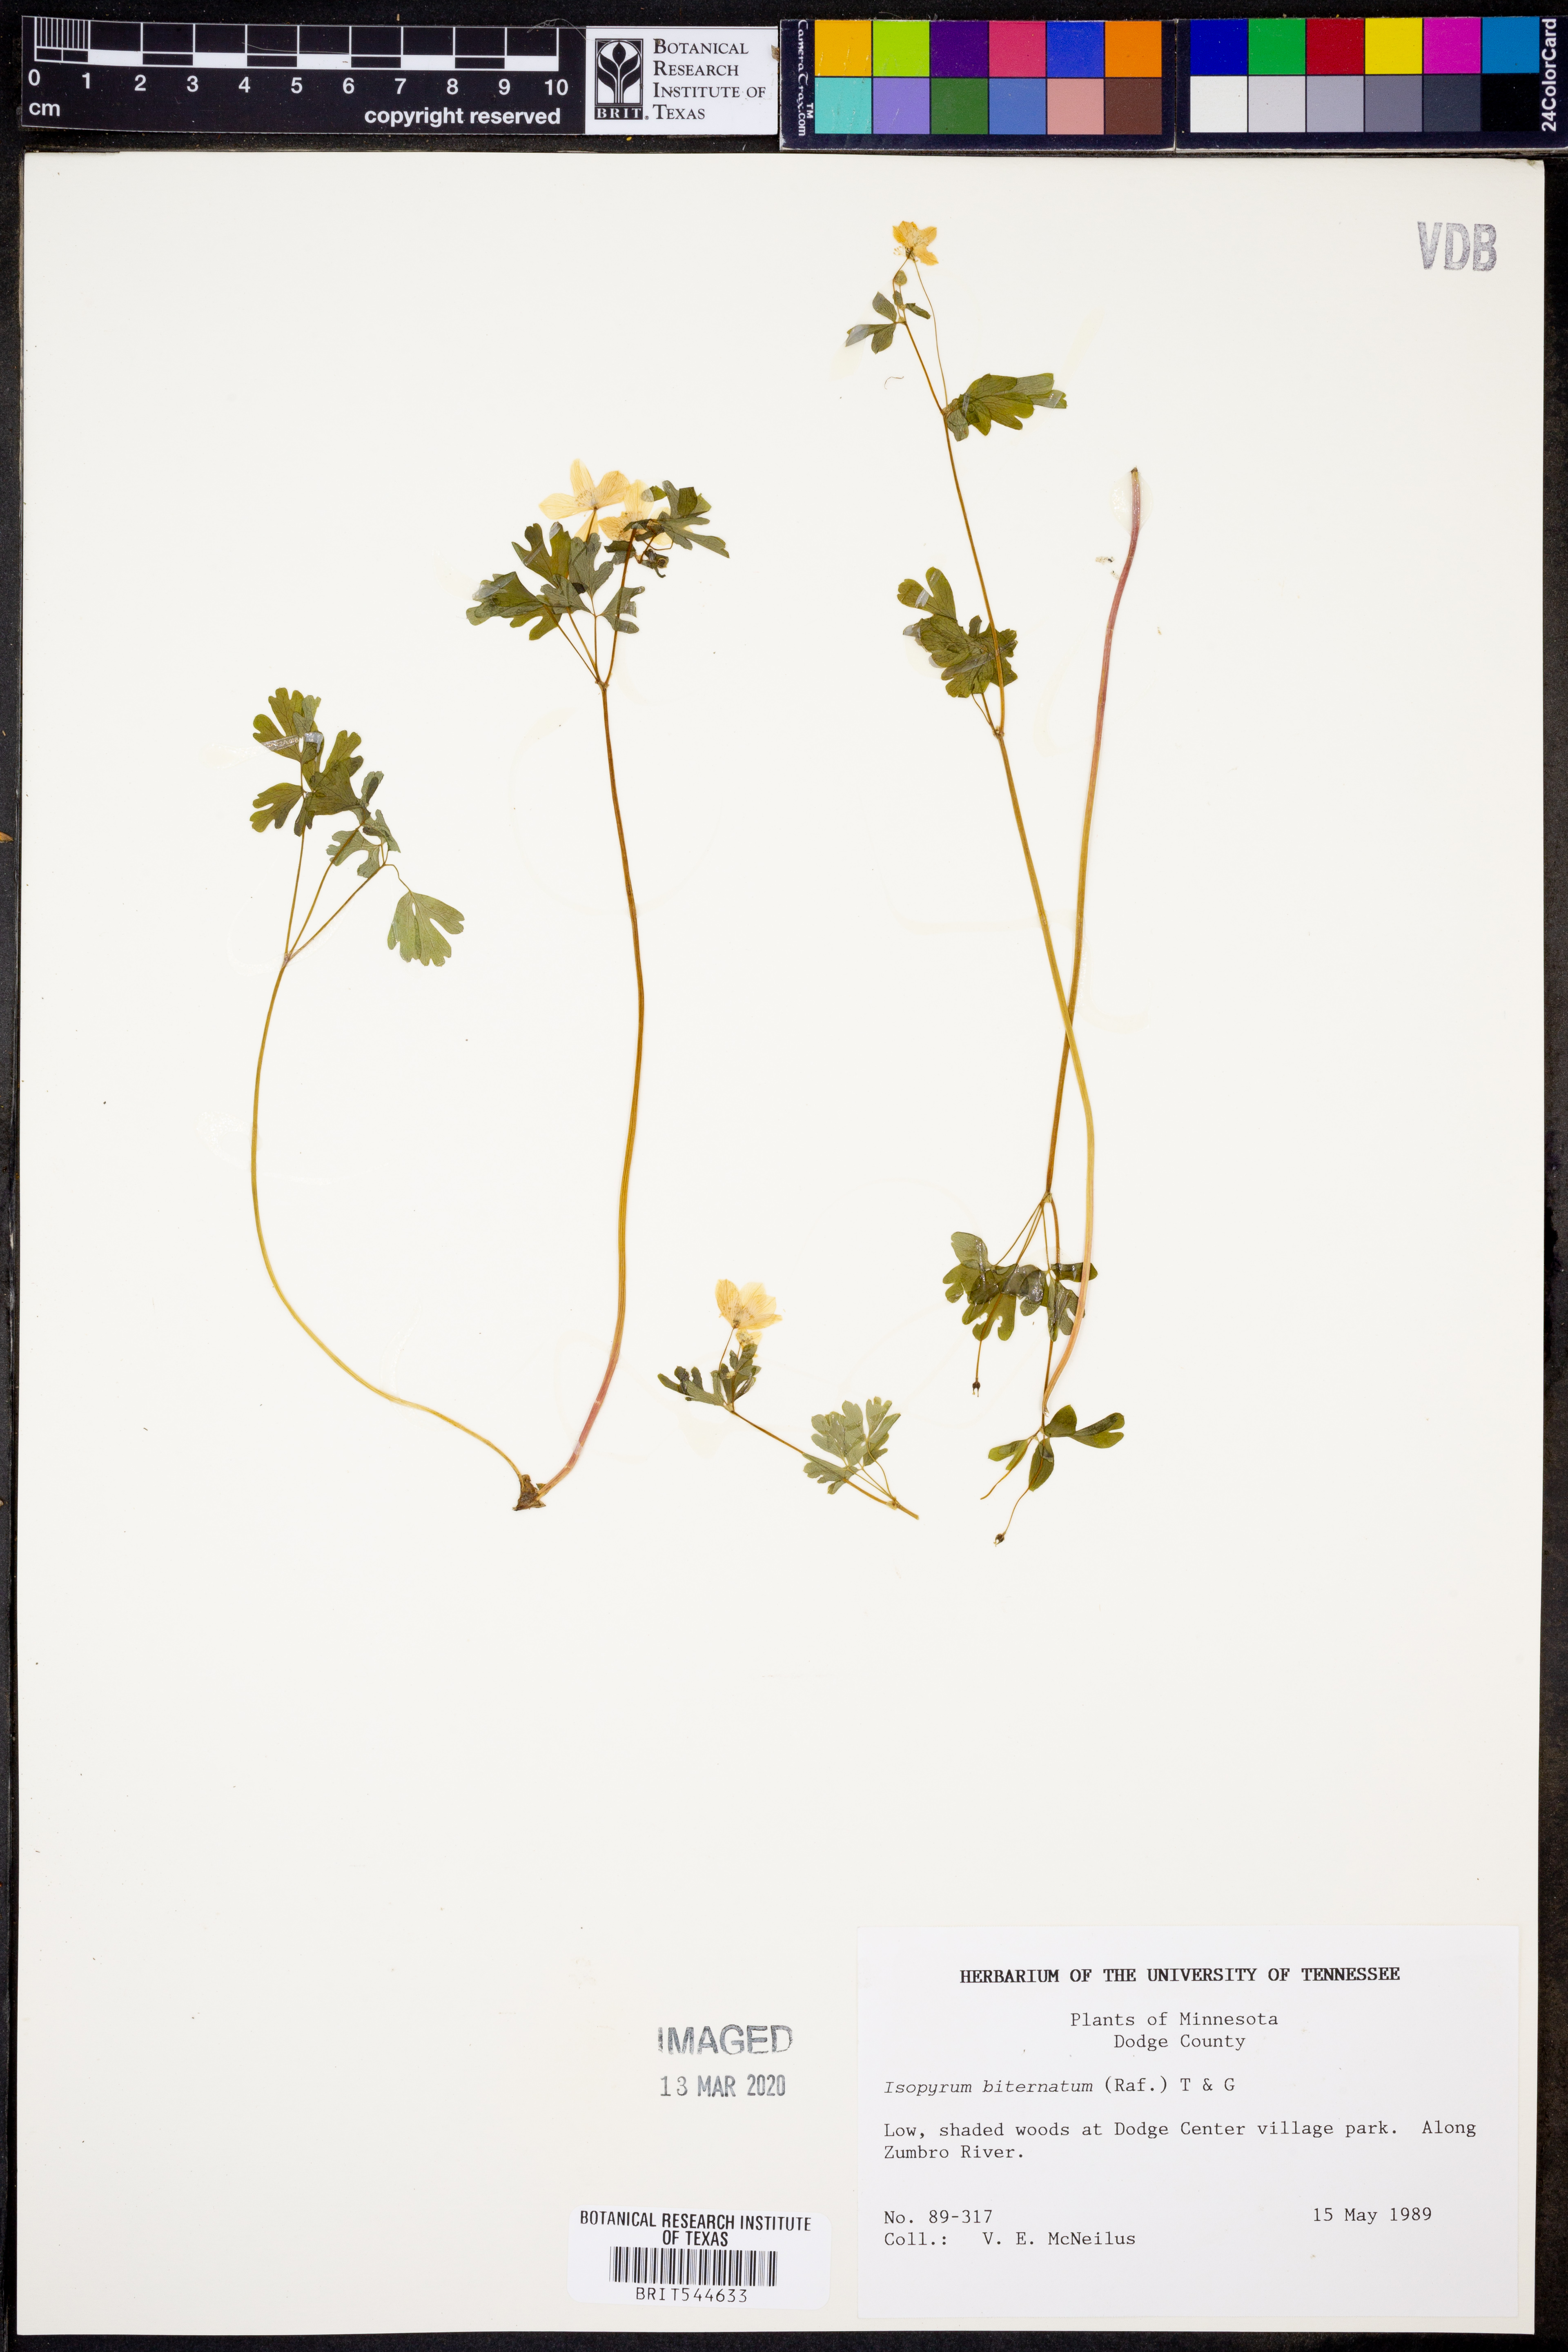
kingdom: Plantae
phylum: Tracheophyta
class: Magnoliopsida
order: Ranunculales
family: Ranunculaceae
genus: Enemion
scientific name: Enemion biternatum
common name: Eastern false rue-anemone
